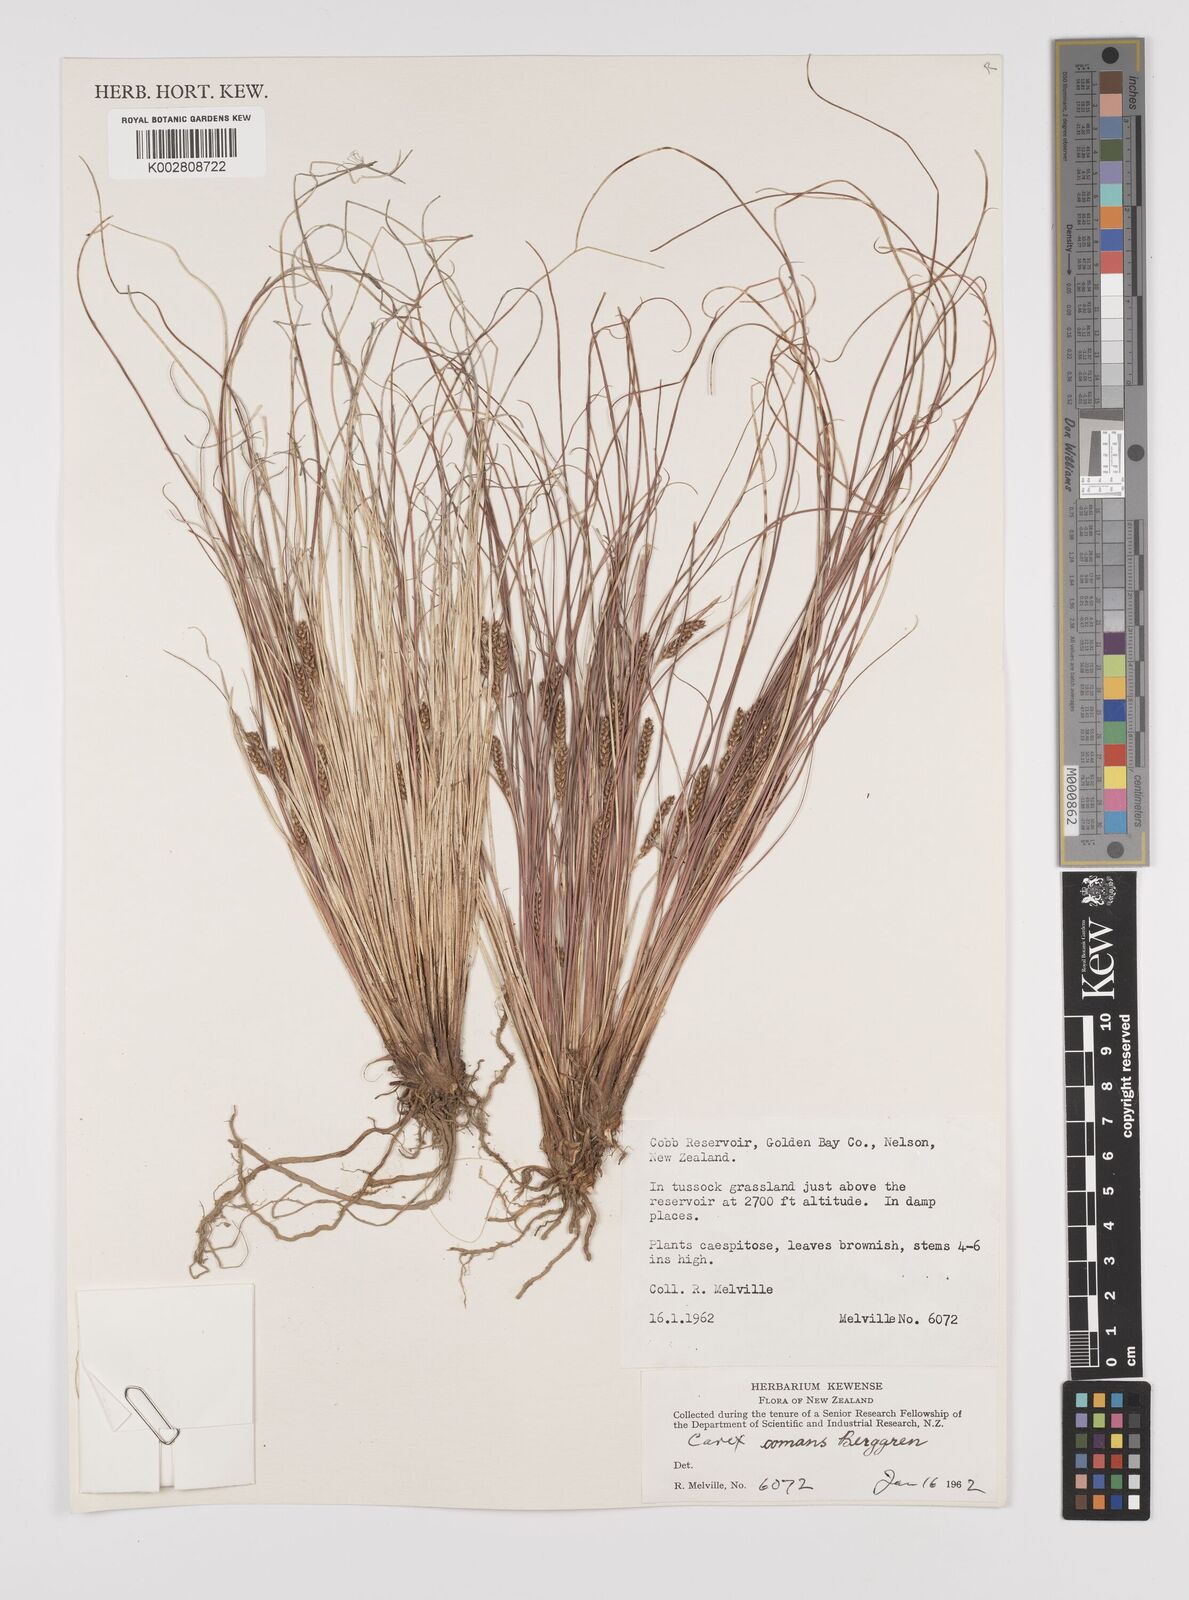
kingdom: Plantae
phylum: Tracheophyta
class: Liliopsida
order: Poales
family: Cyperaceae
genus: Carex
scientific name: Carex comans
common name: Longwood tussock
